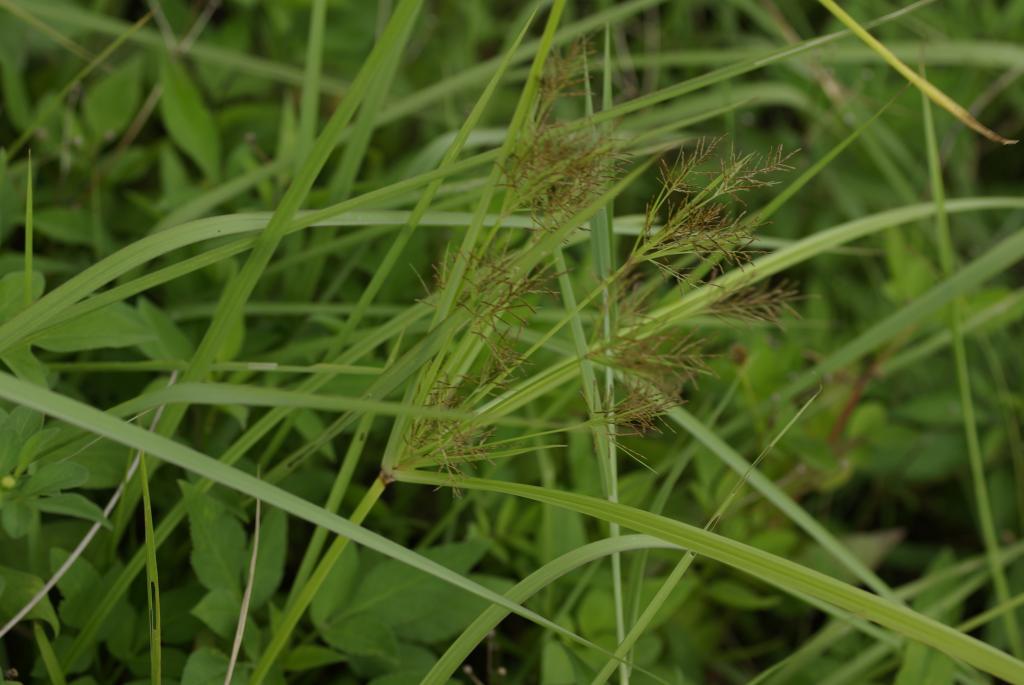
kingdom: Plantae
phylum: Tracheophyta
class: Liliopsida
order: Poales
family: Cyperaceae
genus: Cyperus
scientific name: Cyperus distans
